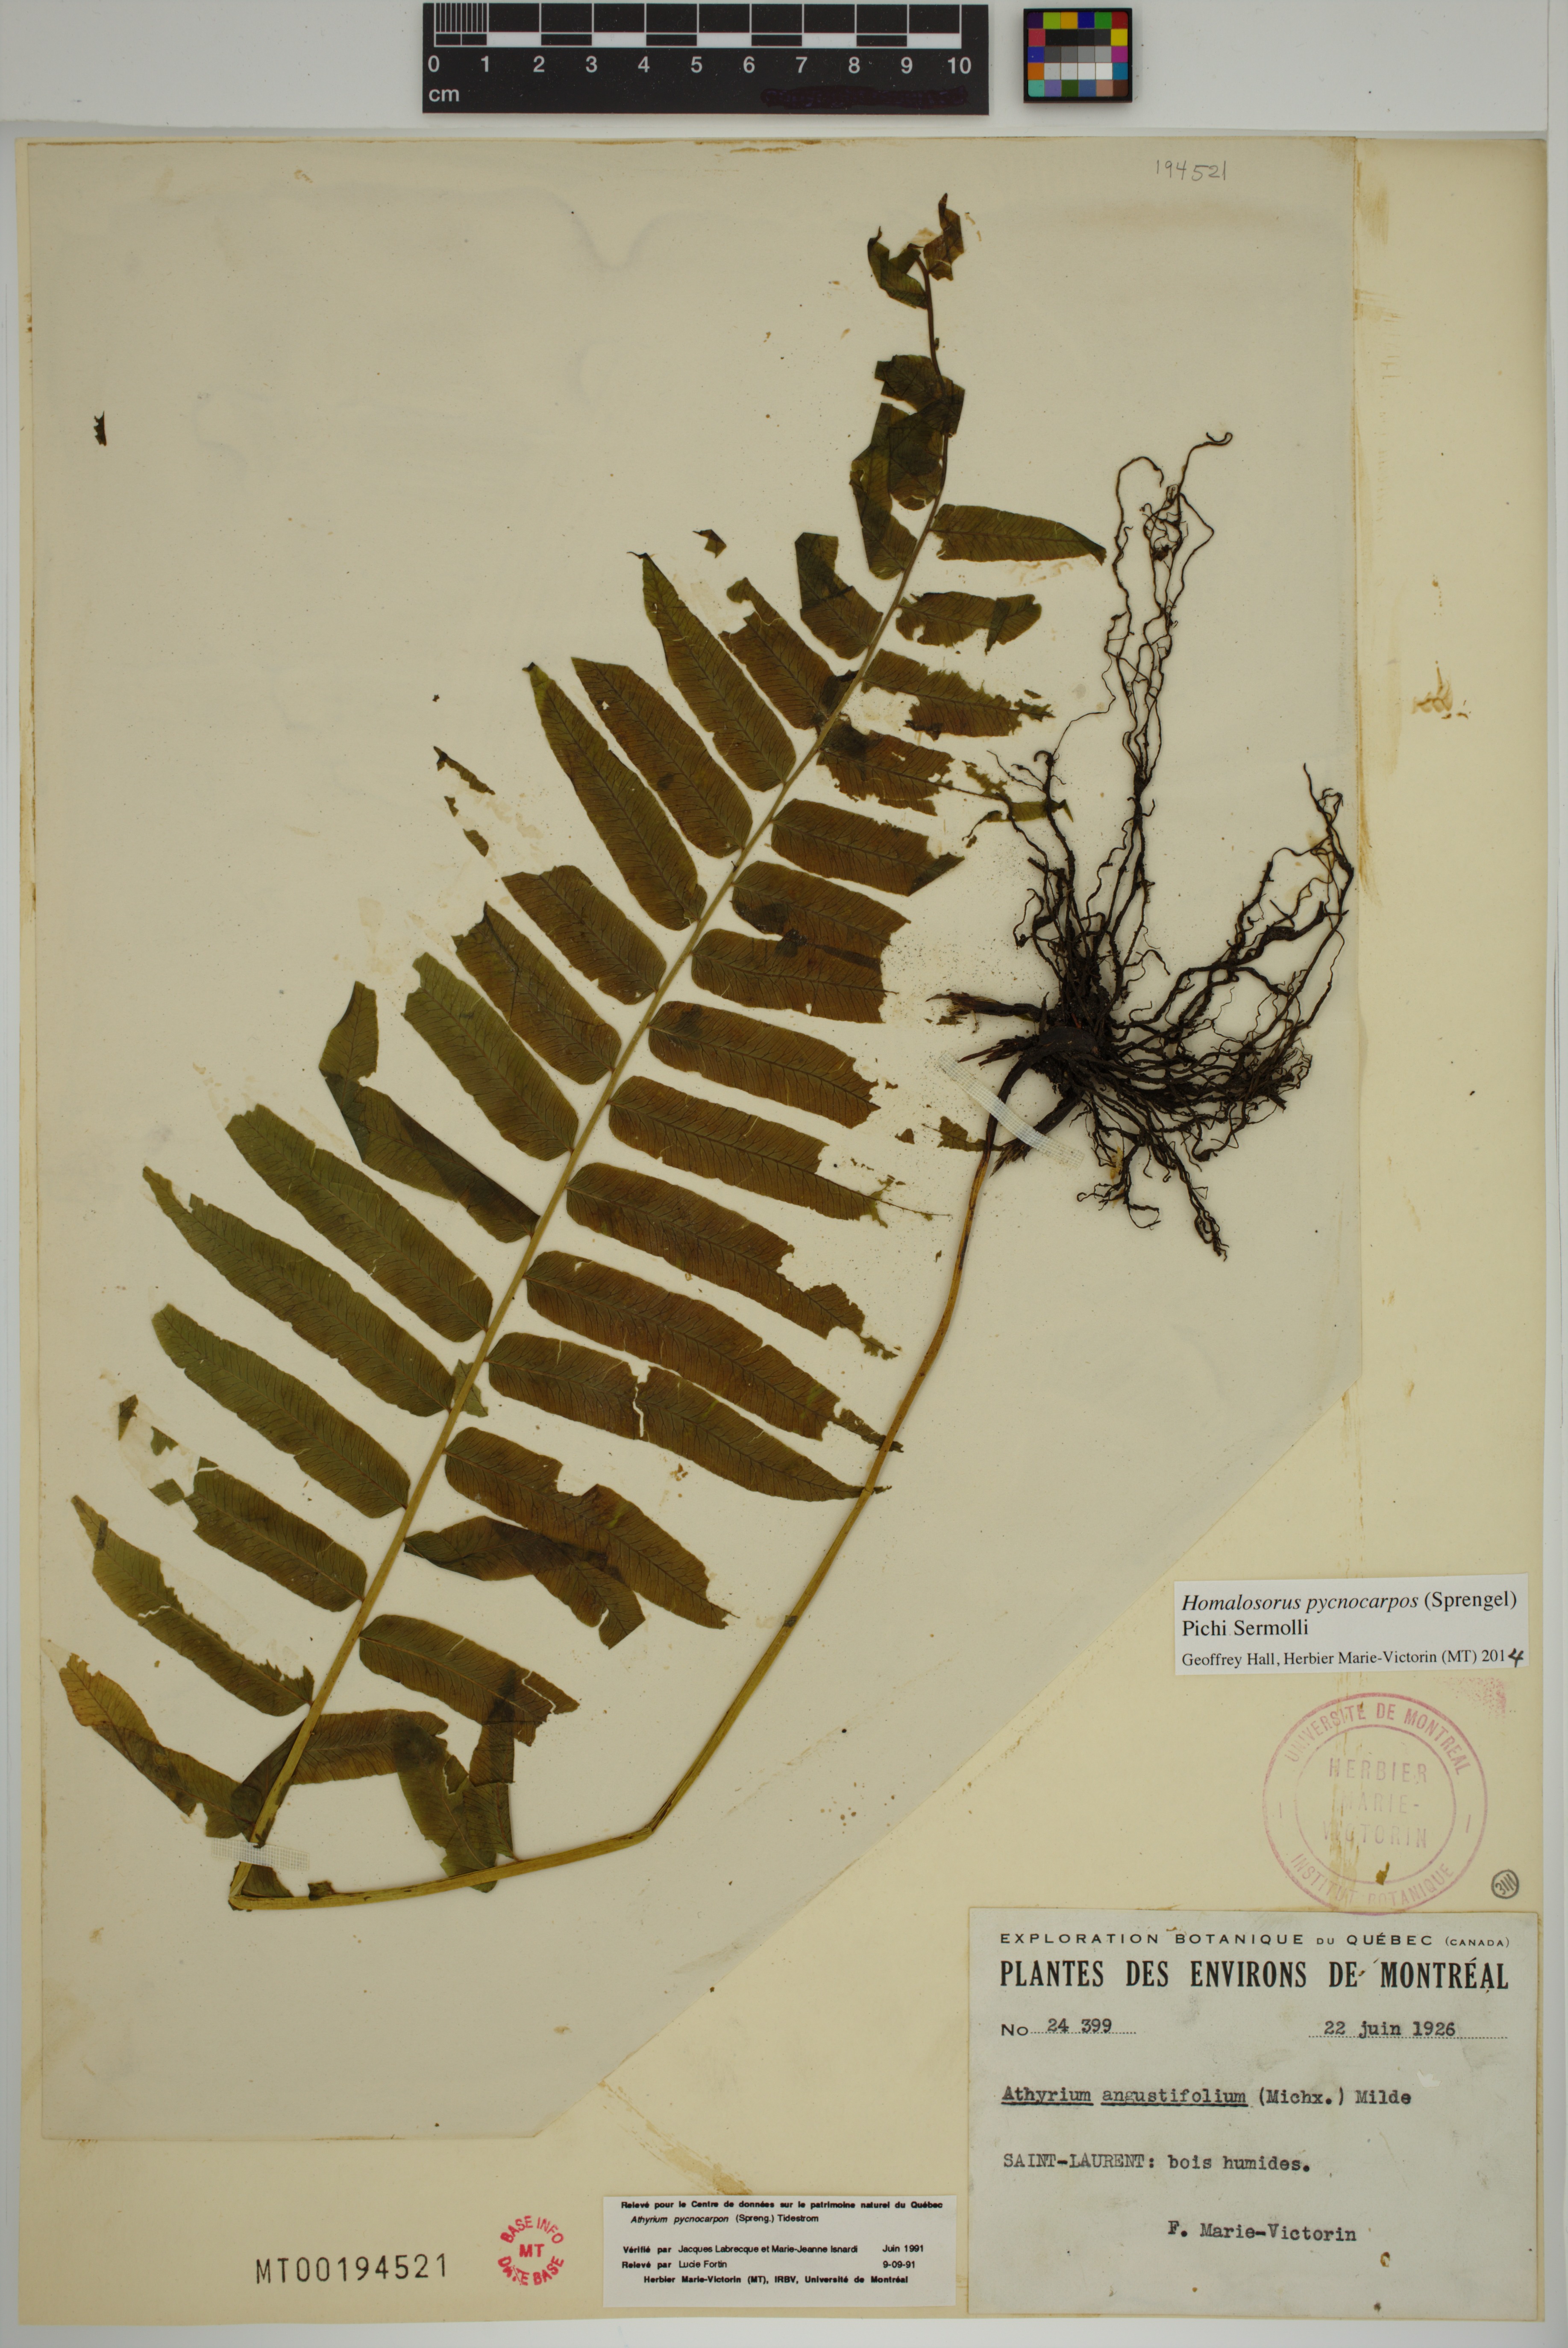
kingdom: Plantae
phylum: Tracheophyta
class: Polypodiopsida
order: Polypodiales
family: Diplaziopsidaceae
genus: Homalosorus
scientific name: Homalosorus pycnocarpos
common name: Glade fern
